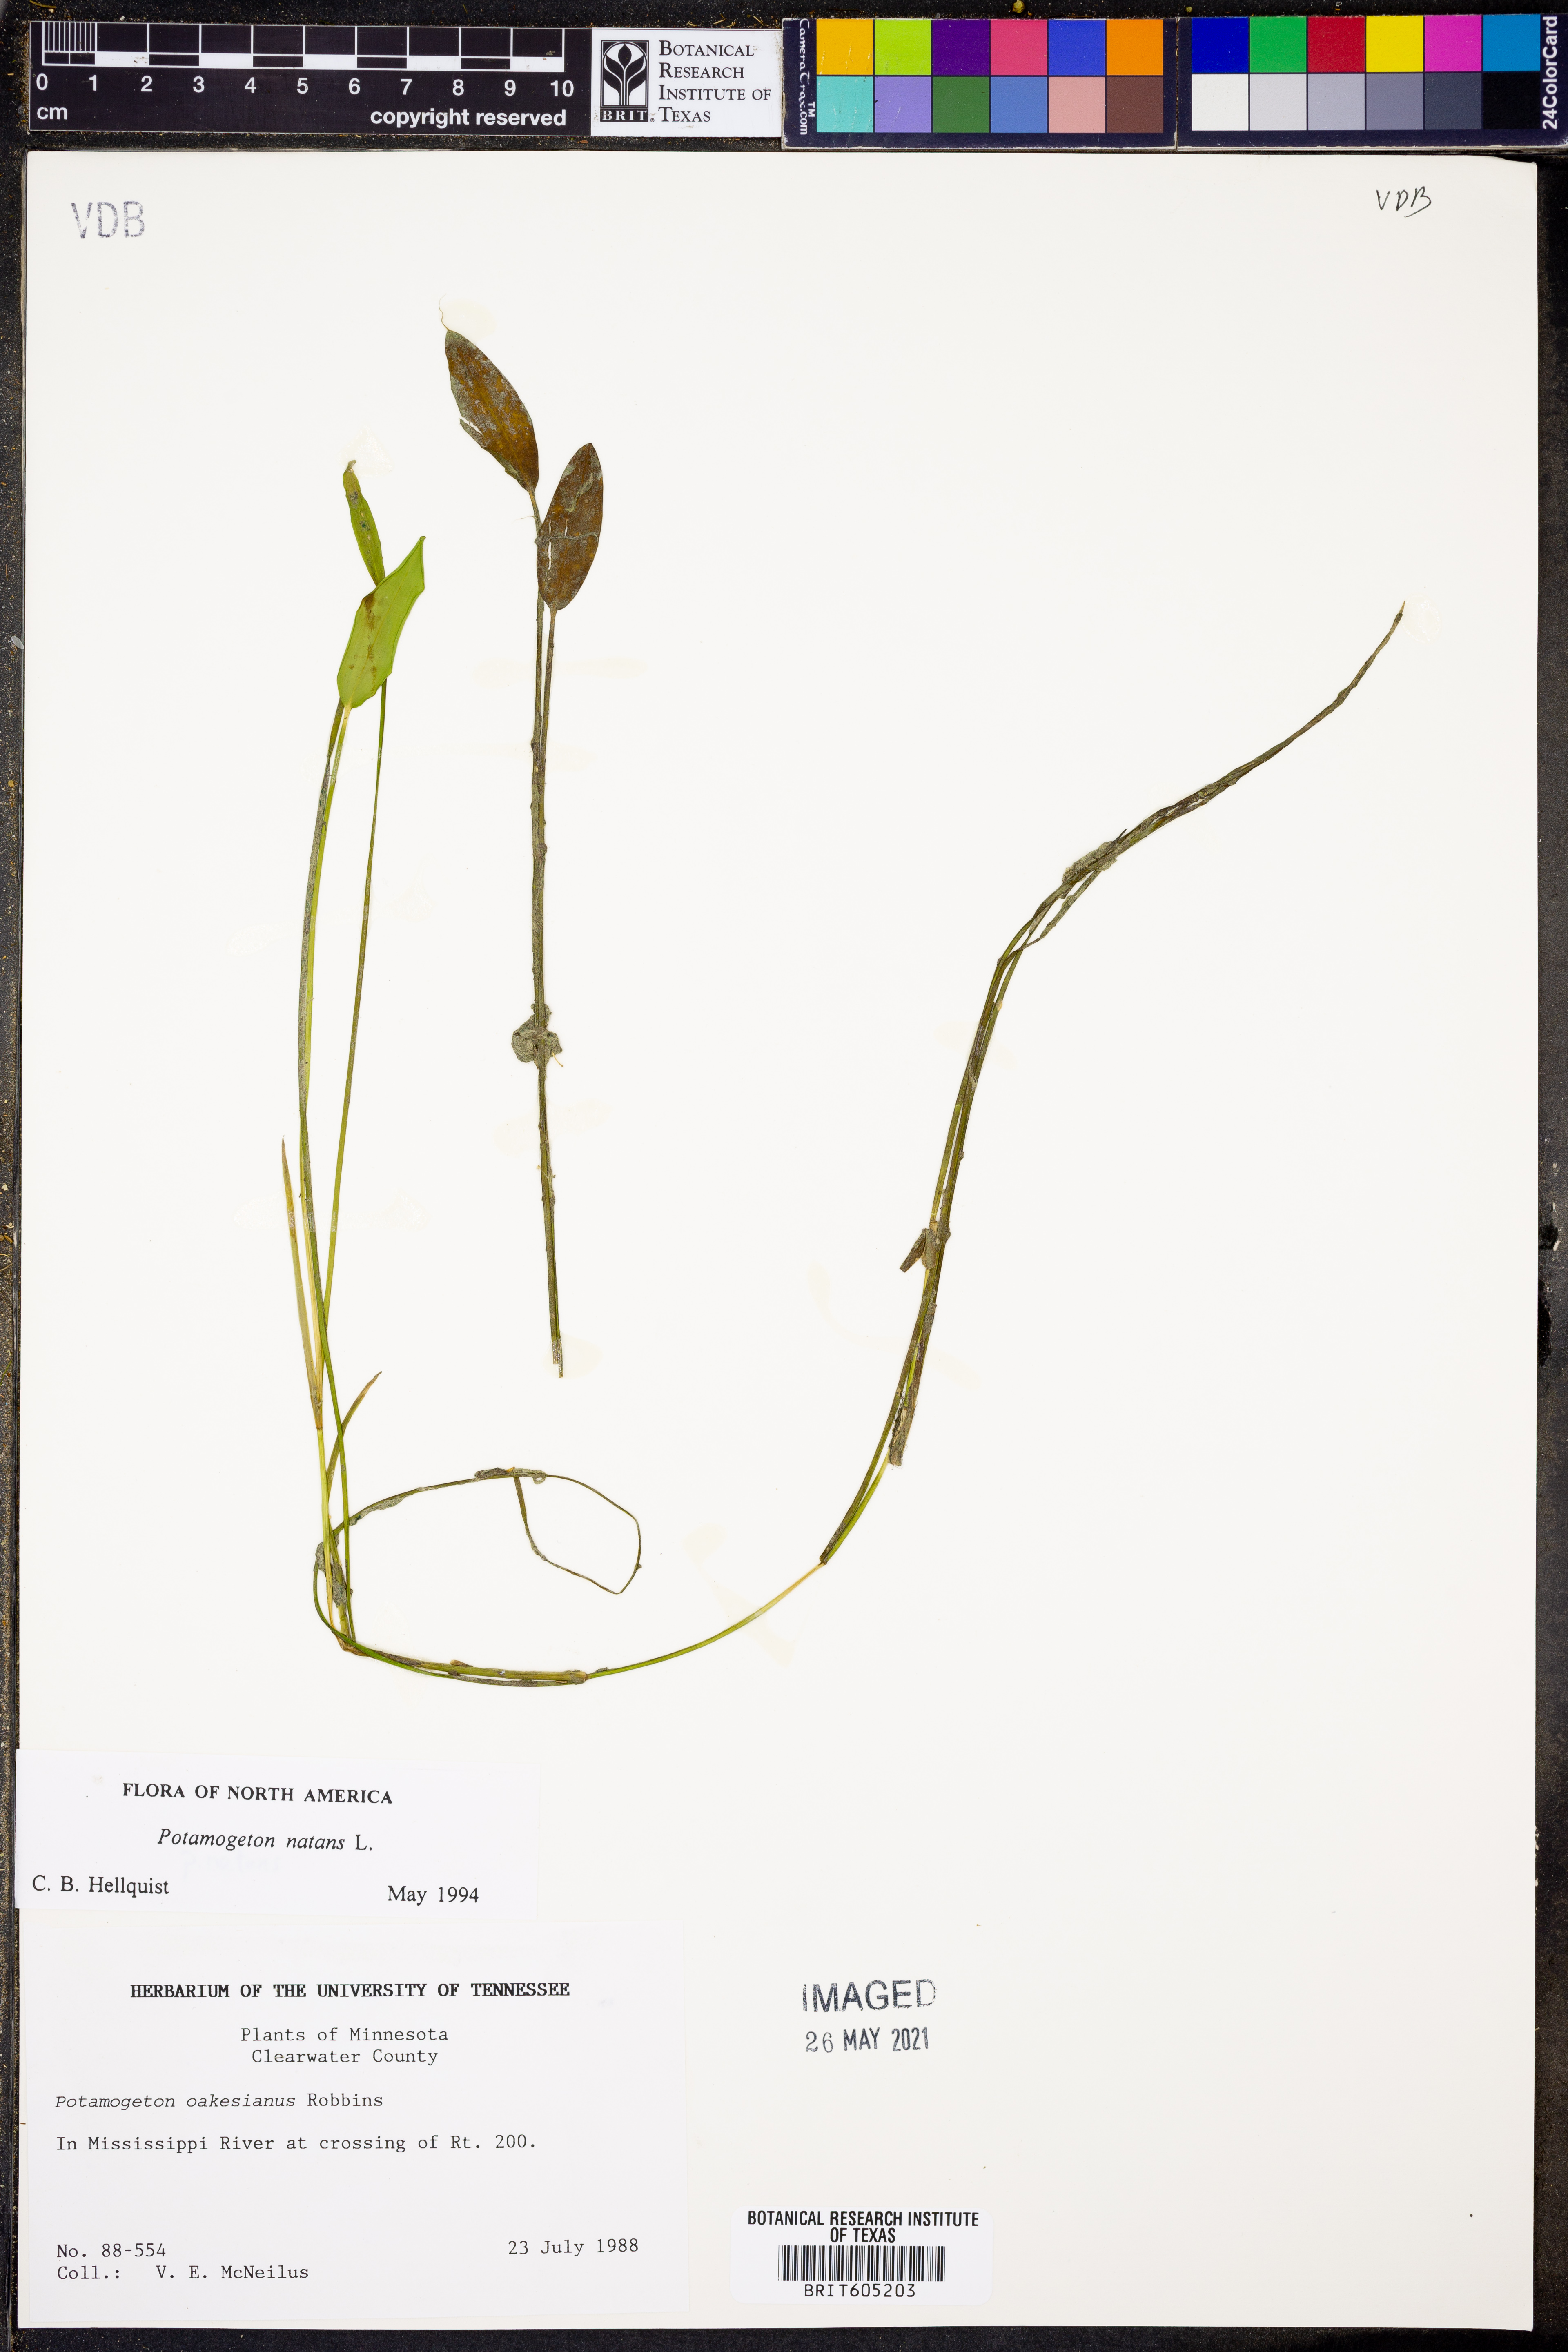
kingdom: Plantae
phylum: Tracheophyta
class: Liliopsida
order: Alismatales
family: Potamogetonaceae
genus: Potamogeton
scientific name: Potamogeton natans
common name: Broad-leaved pondweed
